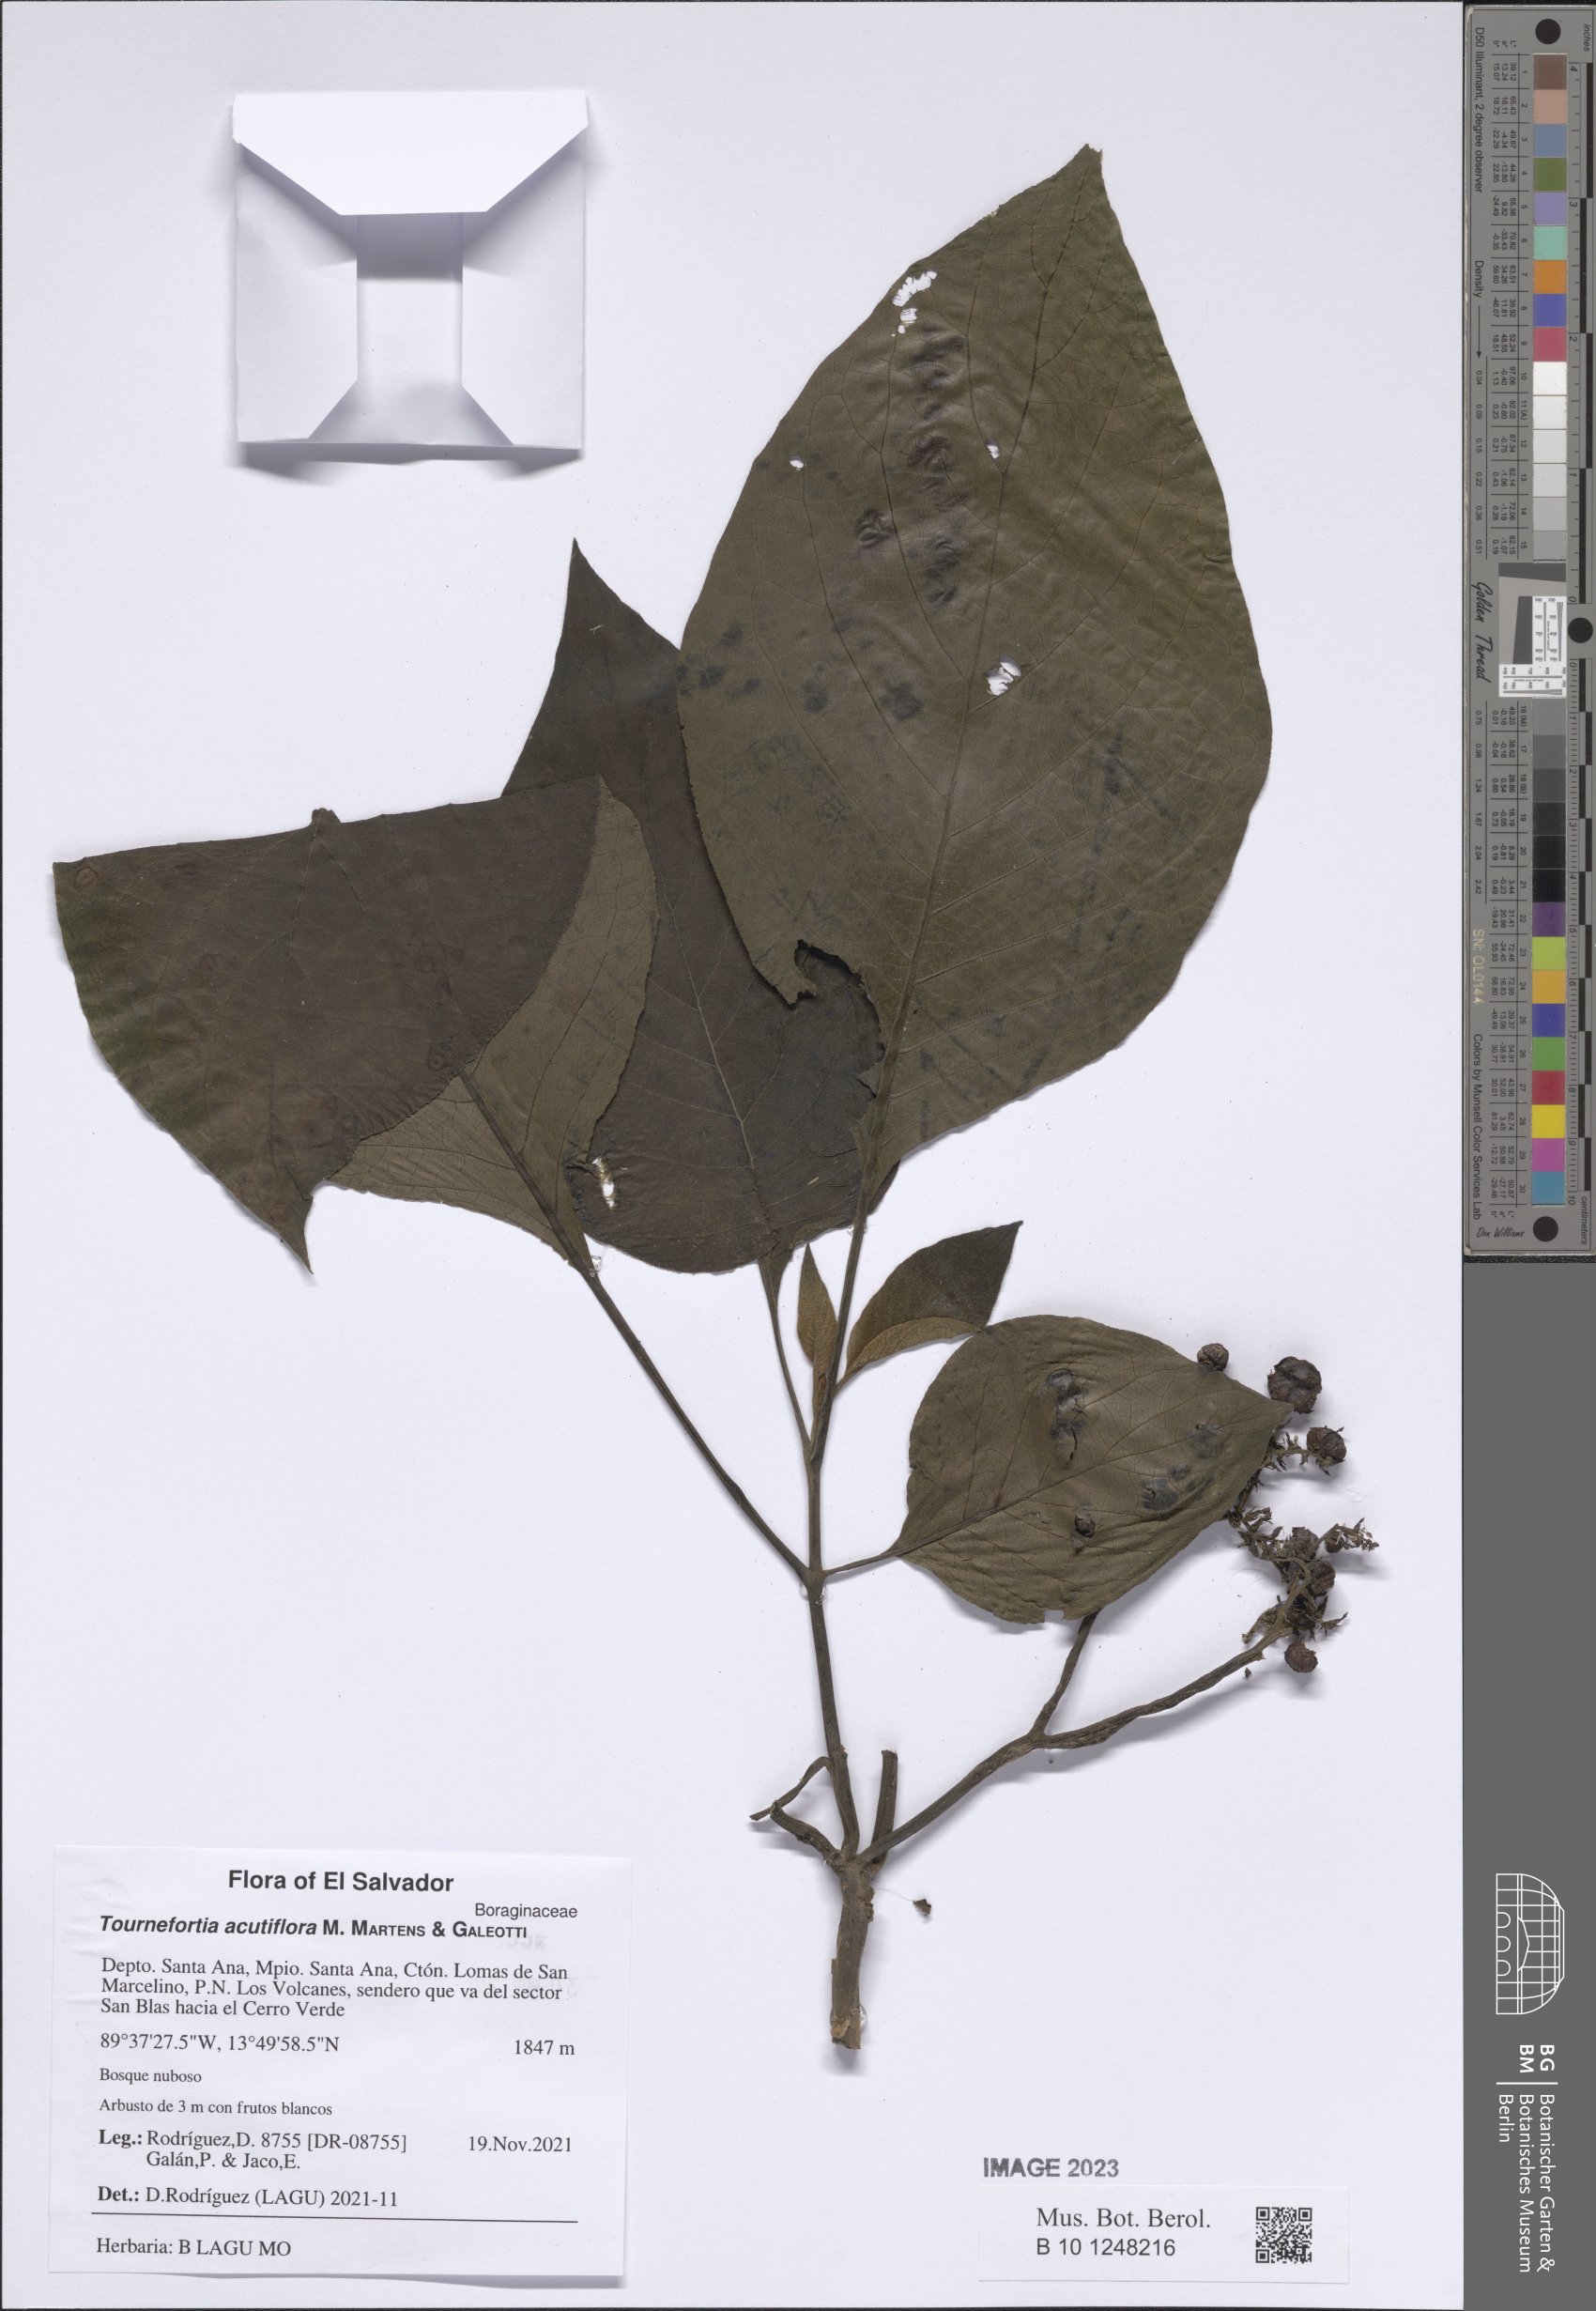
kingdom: Plantae
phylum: Tracheophyta
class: Magnoliopsida
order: Boraginales
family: Heliotropiaceae
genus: Heliotropium
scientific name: Heliotropium petiolare
